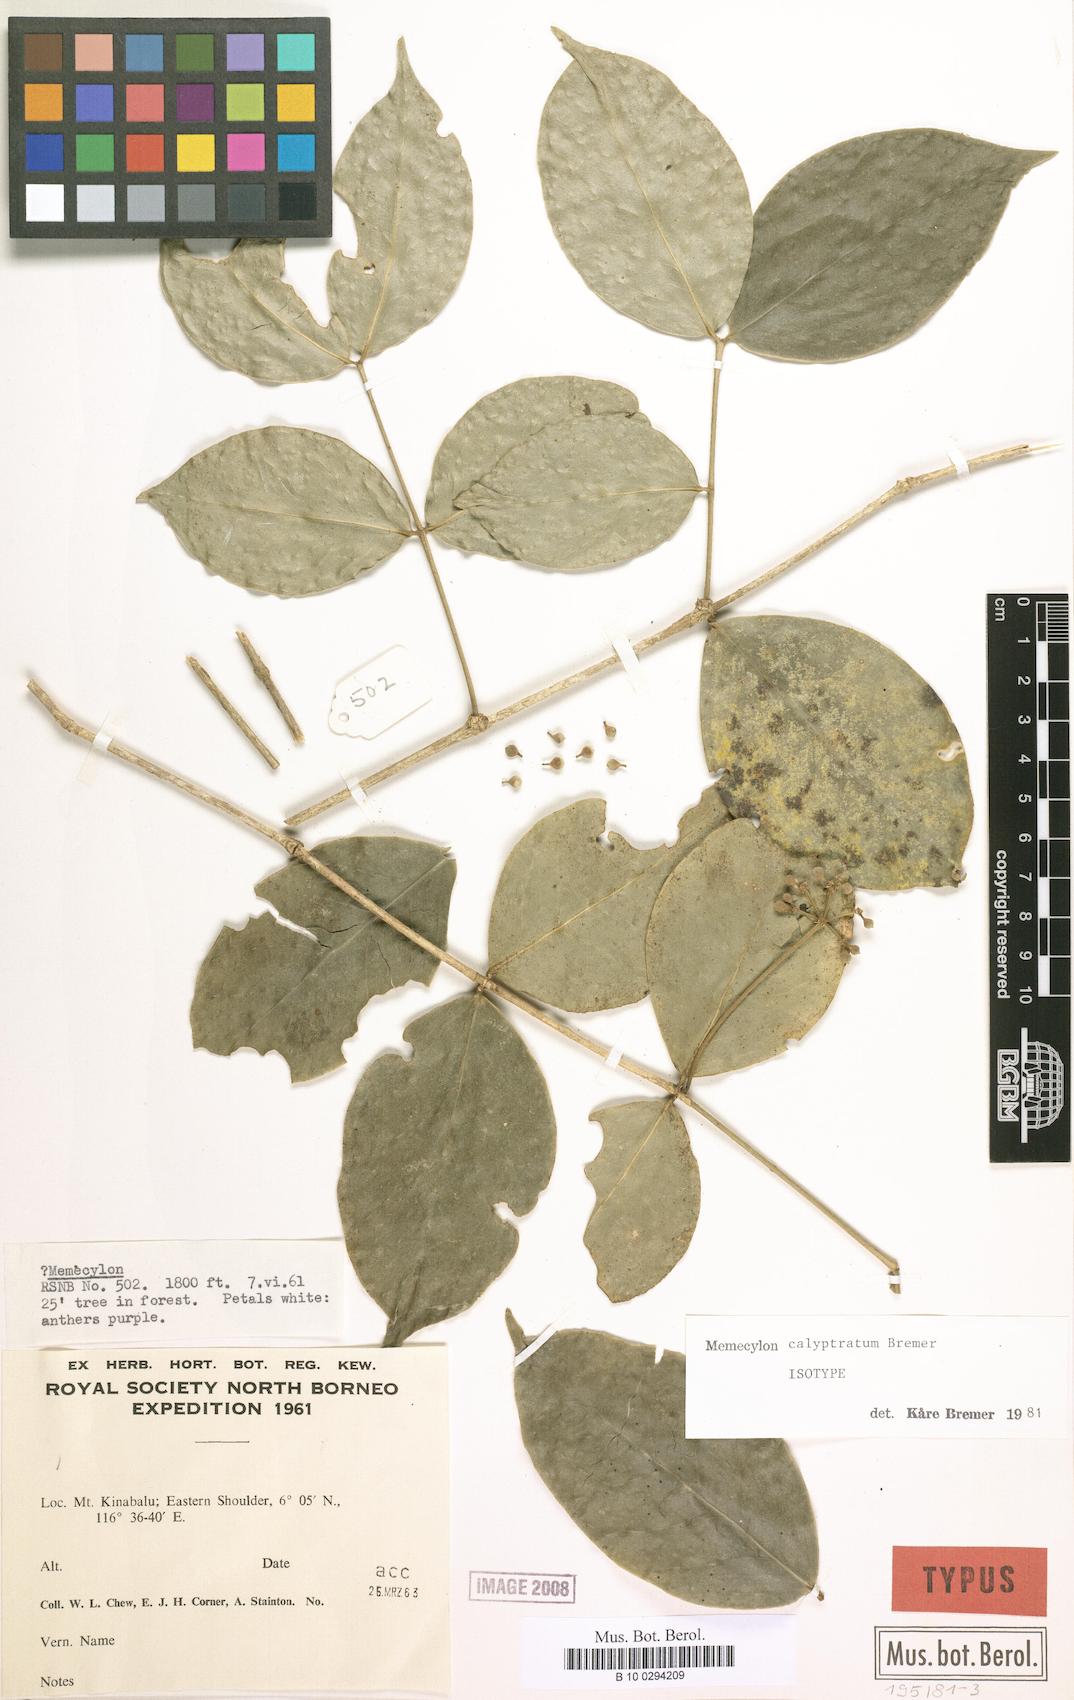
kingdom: Plantae
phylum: Tracheophyta
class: Magnoliopsida
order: Myrtales
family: Melastomataceae
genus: Memecylon
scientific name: Memecylon calyptratum
